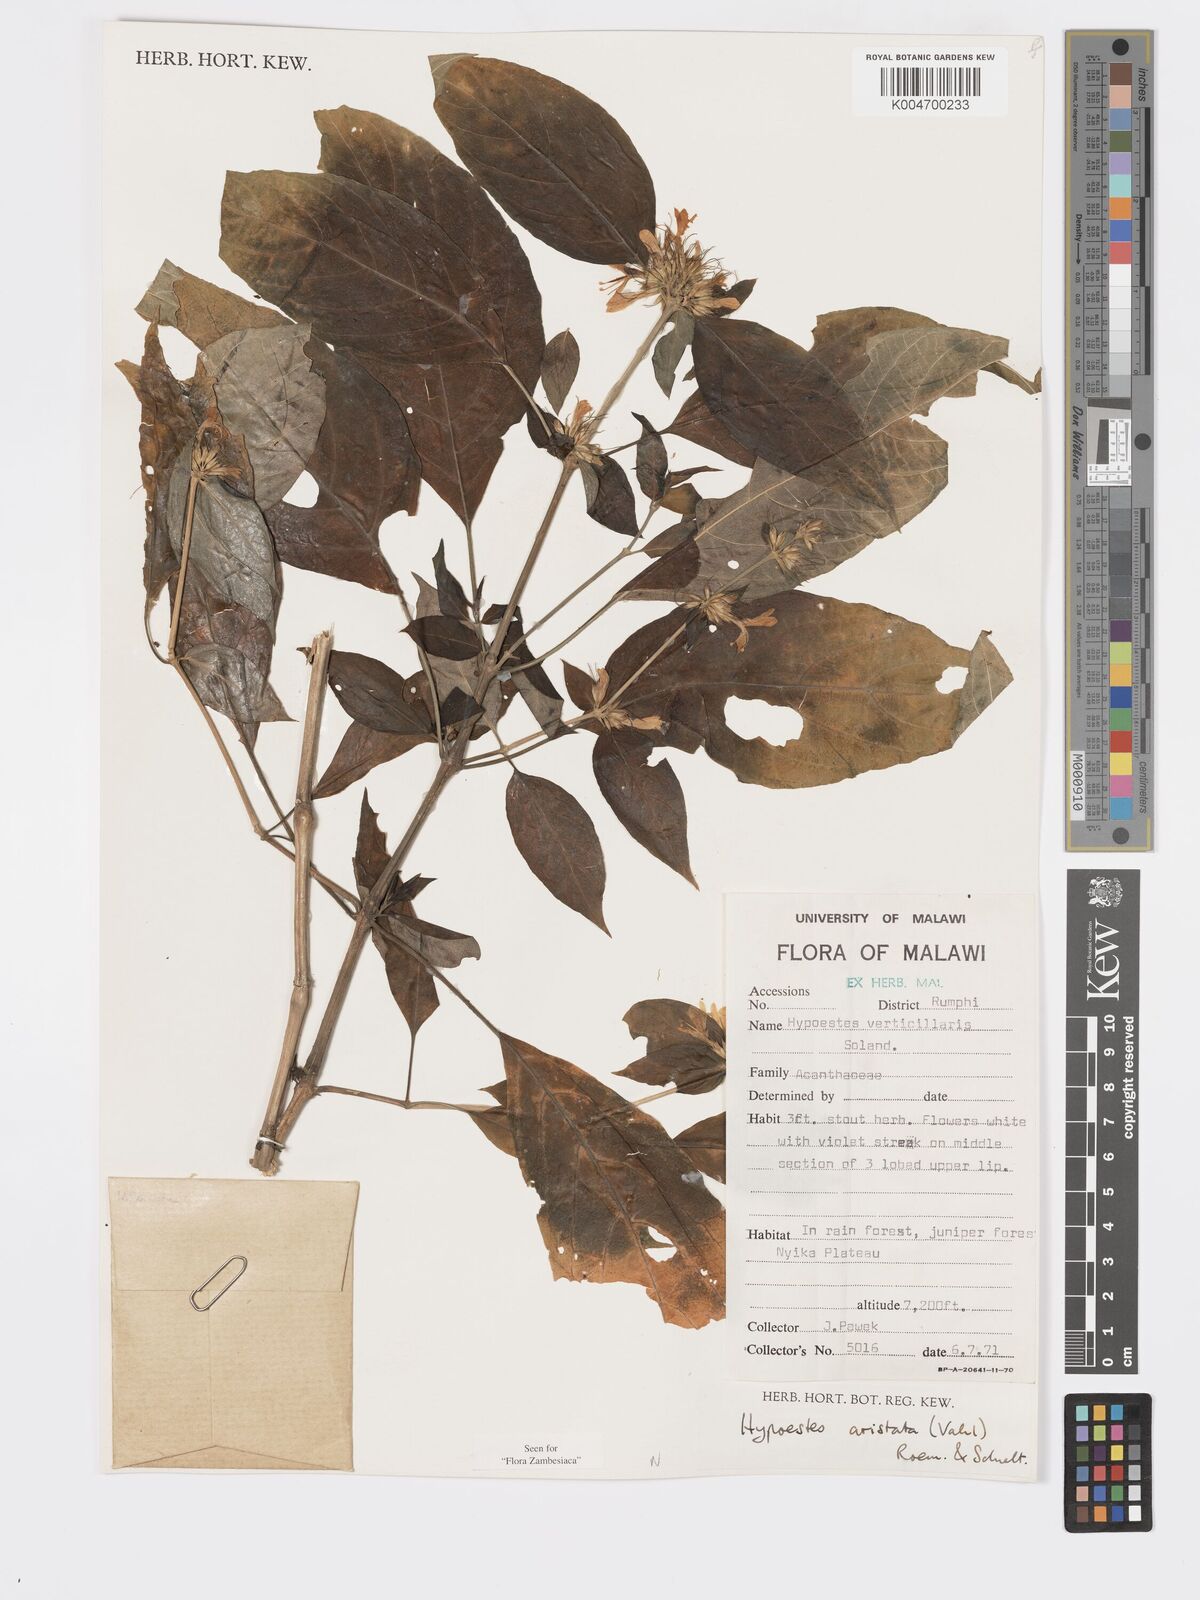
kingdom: Plantae
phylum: Tracheophyta
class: Magnoliopsida
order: Lamiales
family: Acanthaceae
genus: Hypoestes
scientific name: Hypoestes aristata
